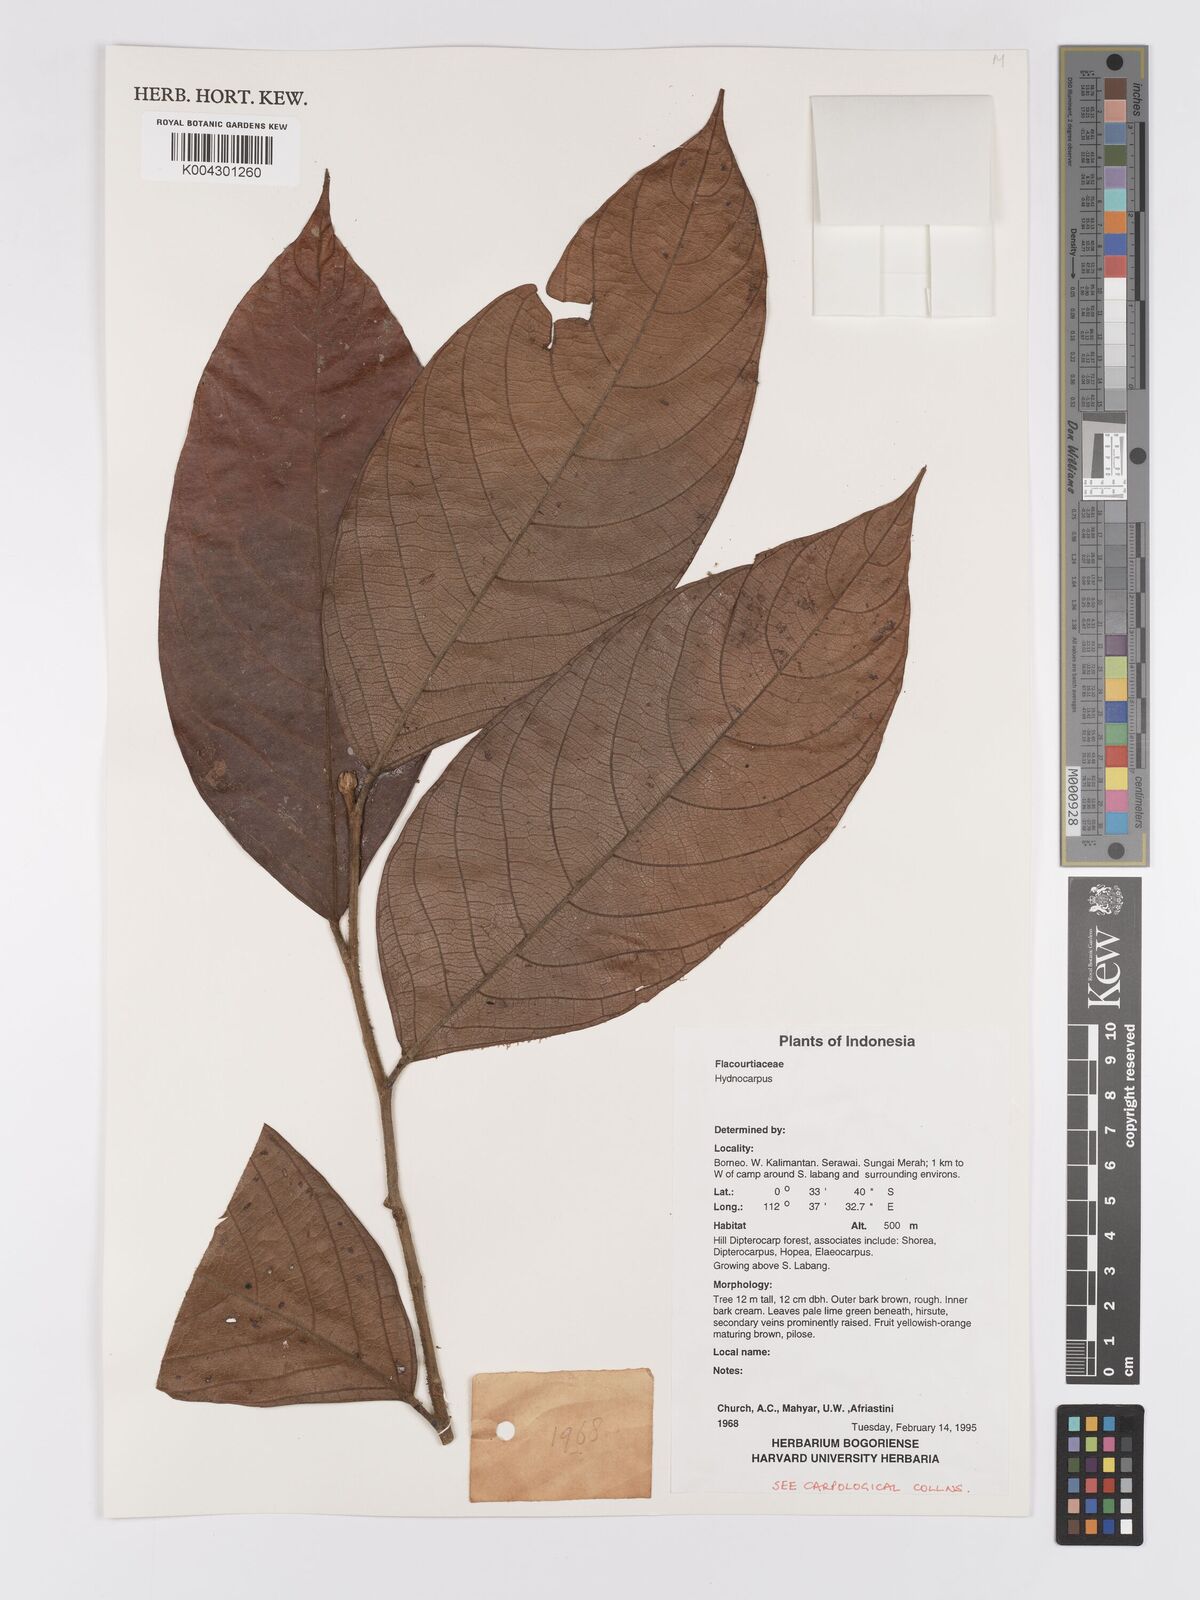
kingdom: Plantae
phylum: Tracheophyta
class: Magnoliopsida
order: Malpighiales
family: Achariaceae
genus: Hydnocarpus
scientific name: Hydnocarpus
